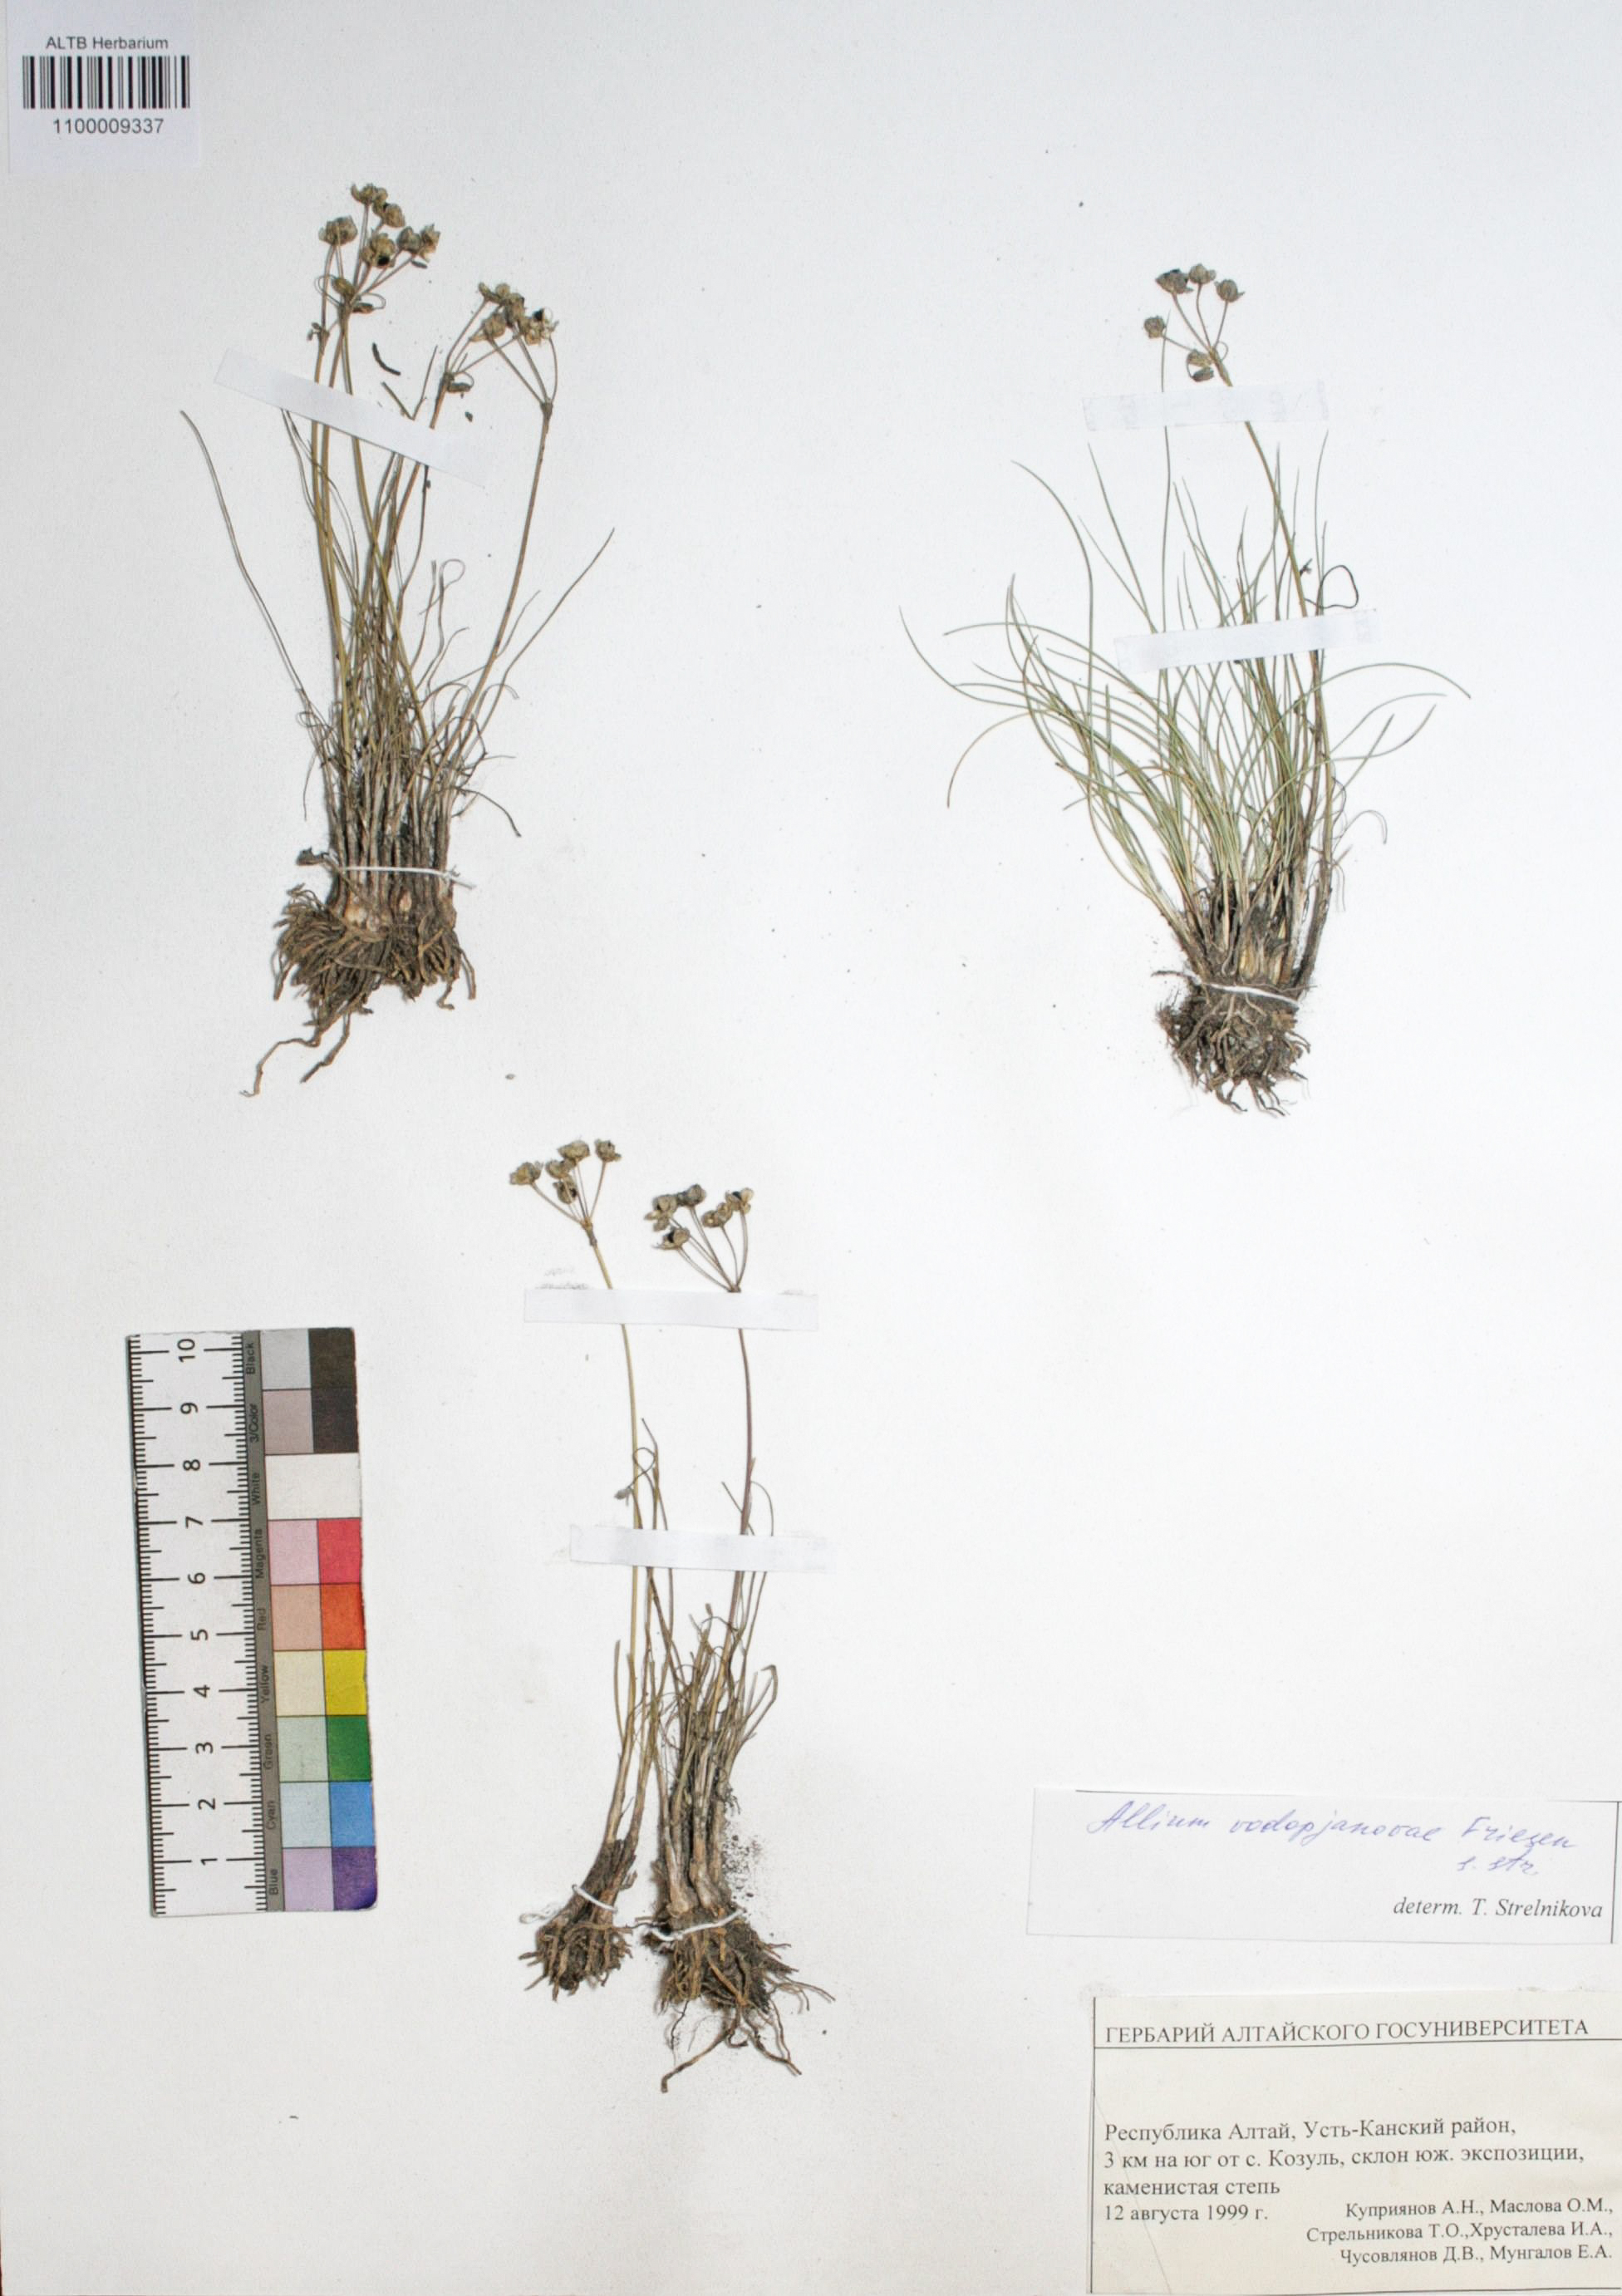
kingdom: Plantae
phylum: Tracheophyta
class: Liliopsida
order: Asparagales
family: Amaryllidaceae
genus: Allium
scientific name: Allium vodopjanovae
